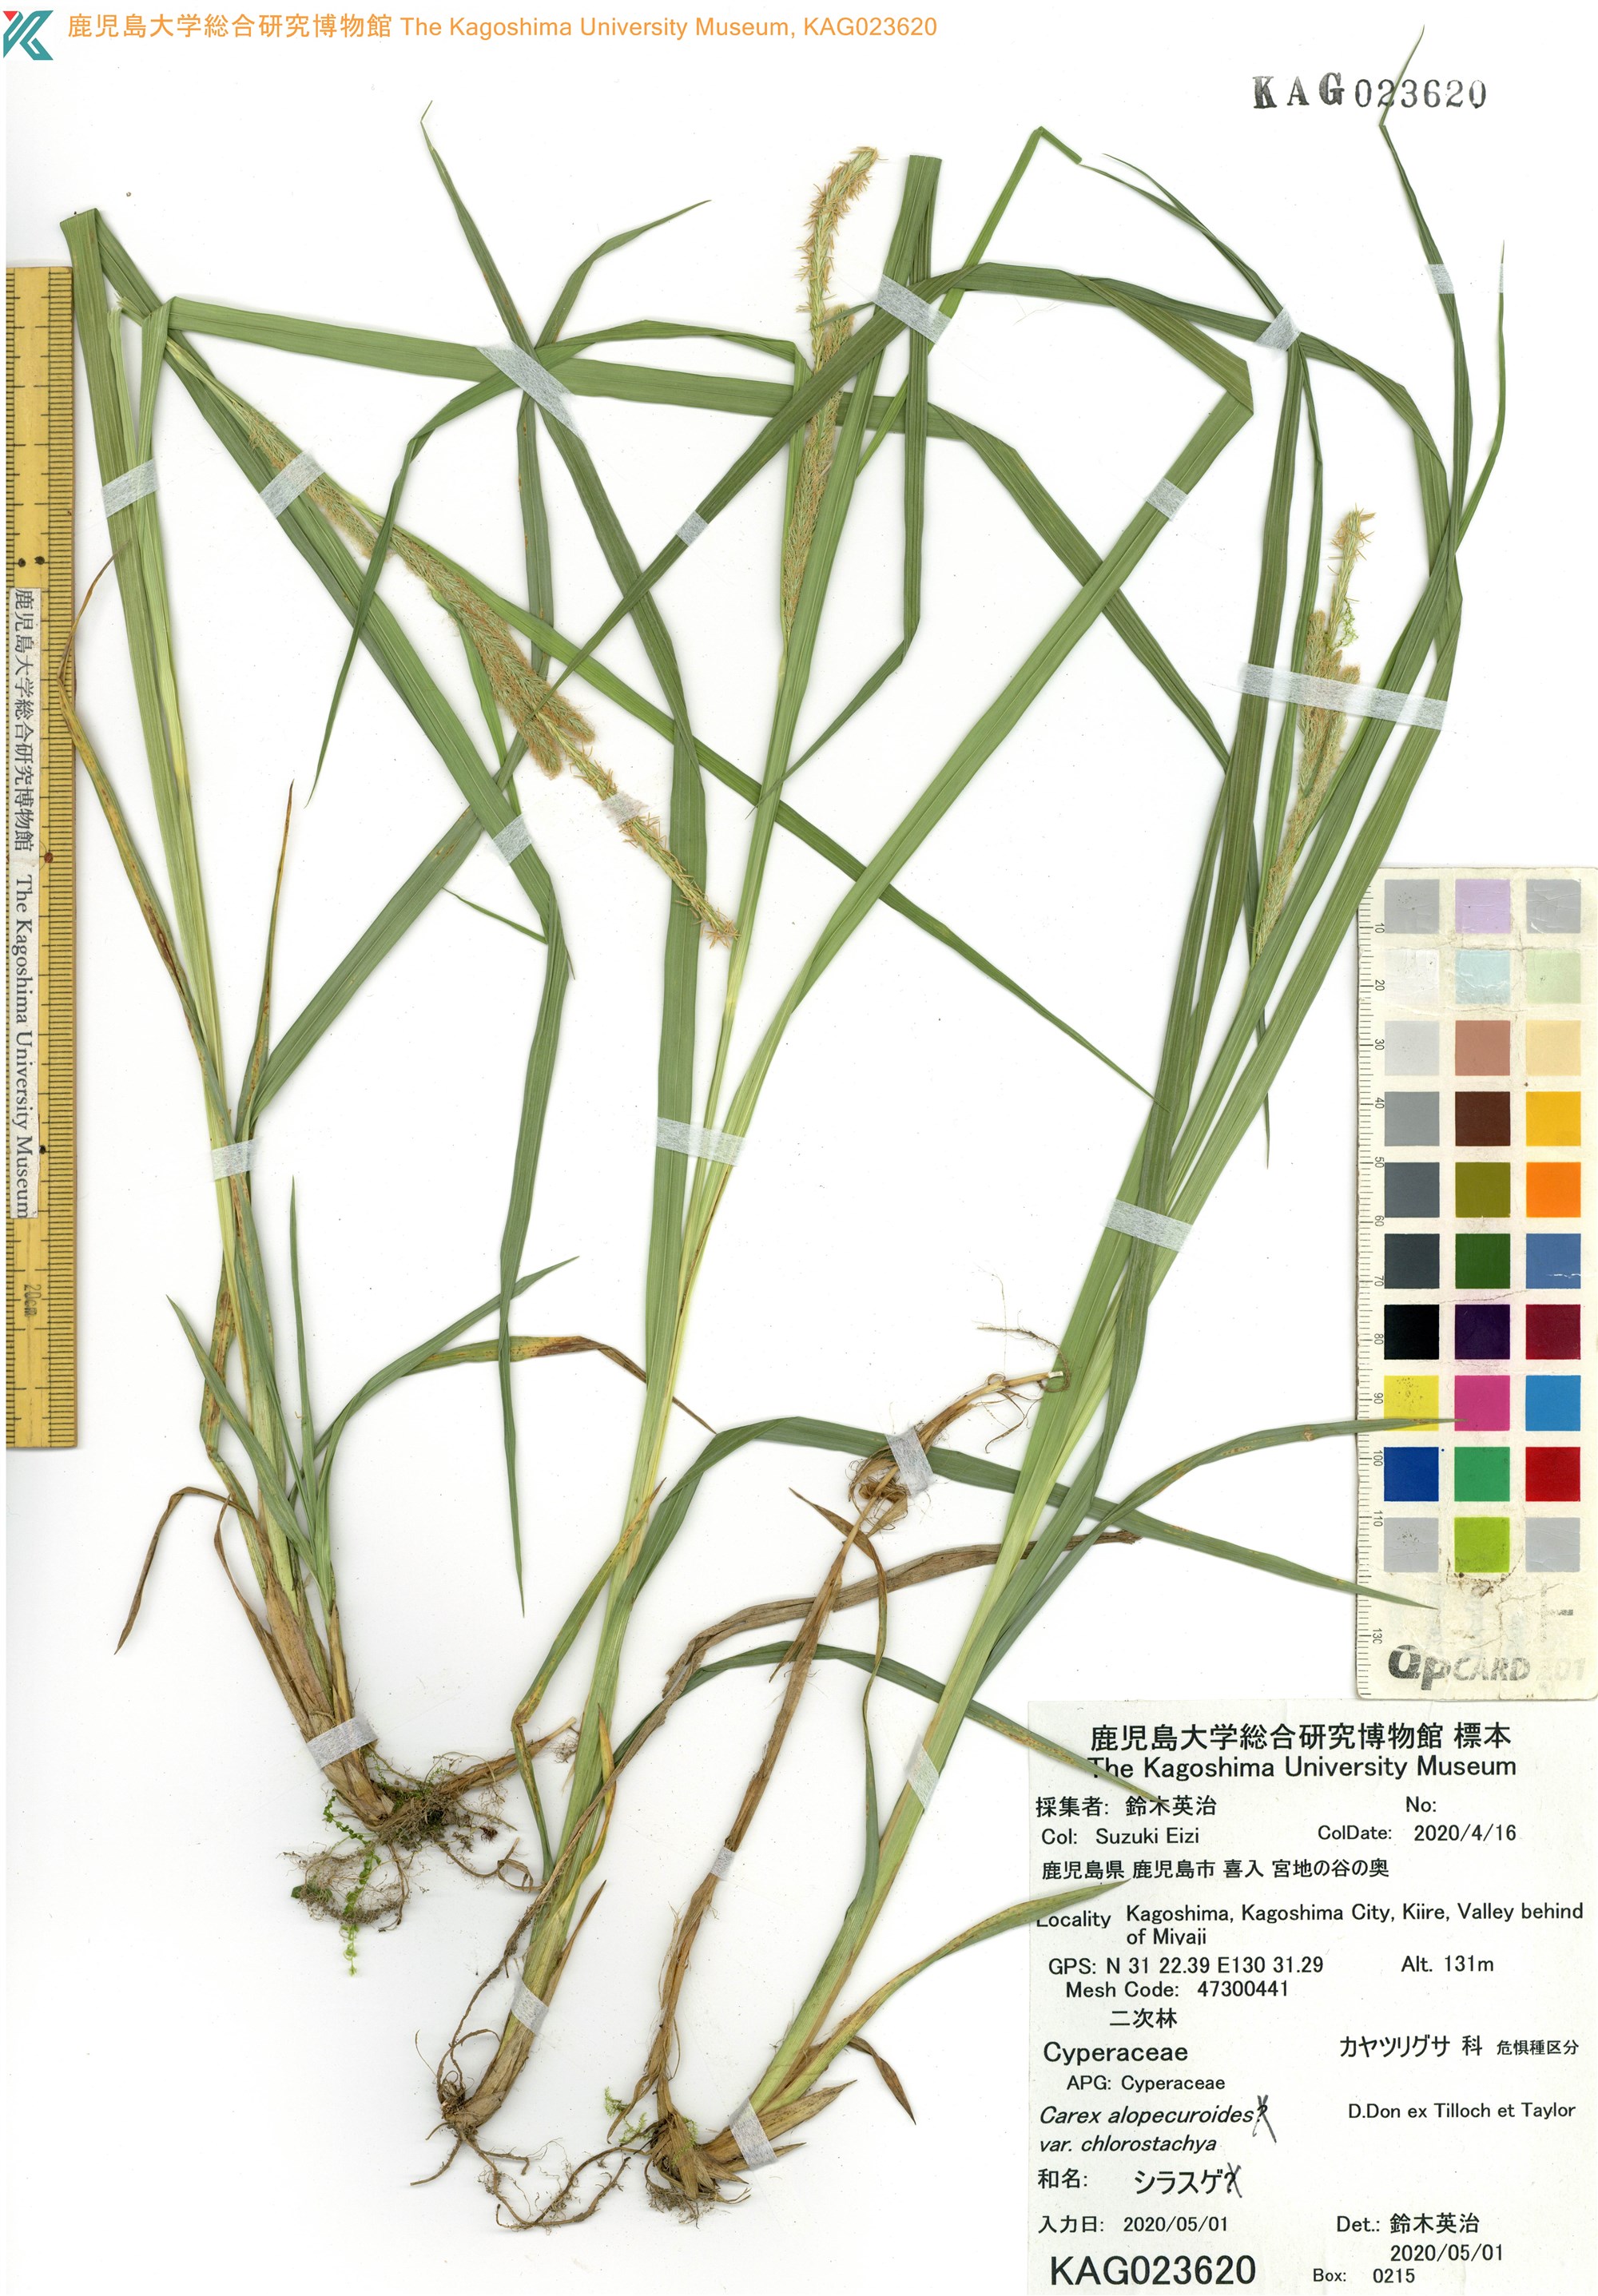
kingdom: Plantae
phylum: Tracheophyta
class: Liliopsida
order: Poales
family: Cyperaceae
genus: Carex
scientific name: Carex doniana
